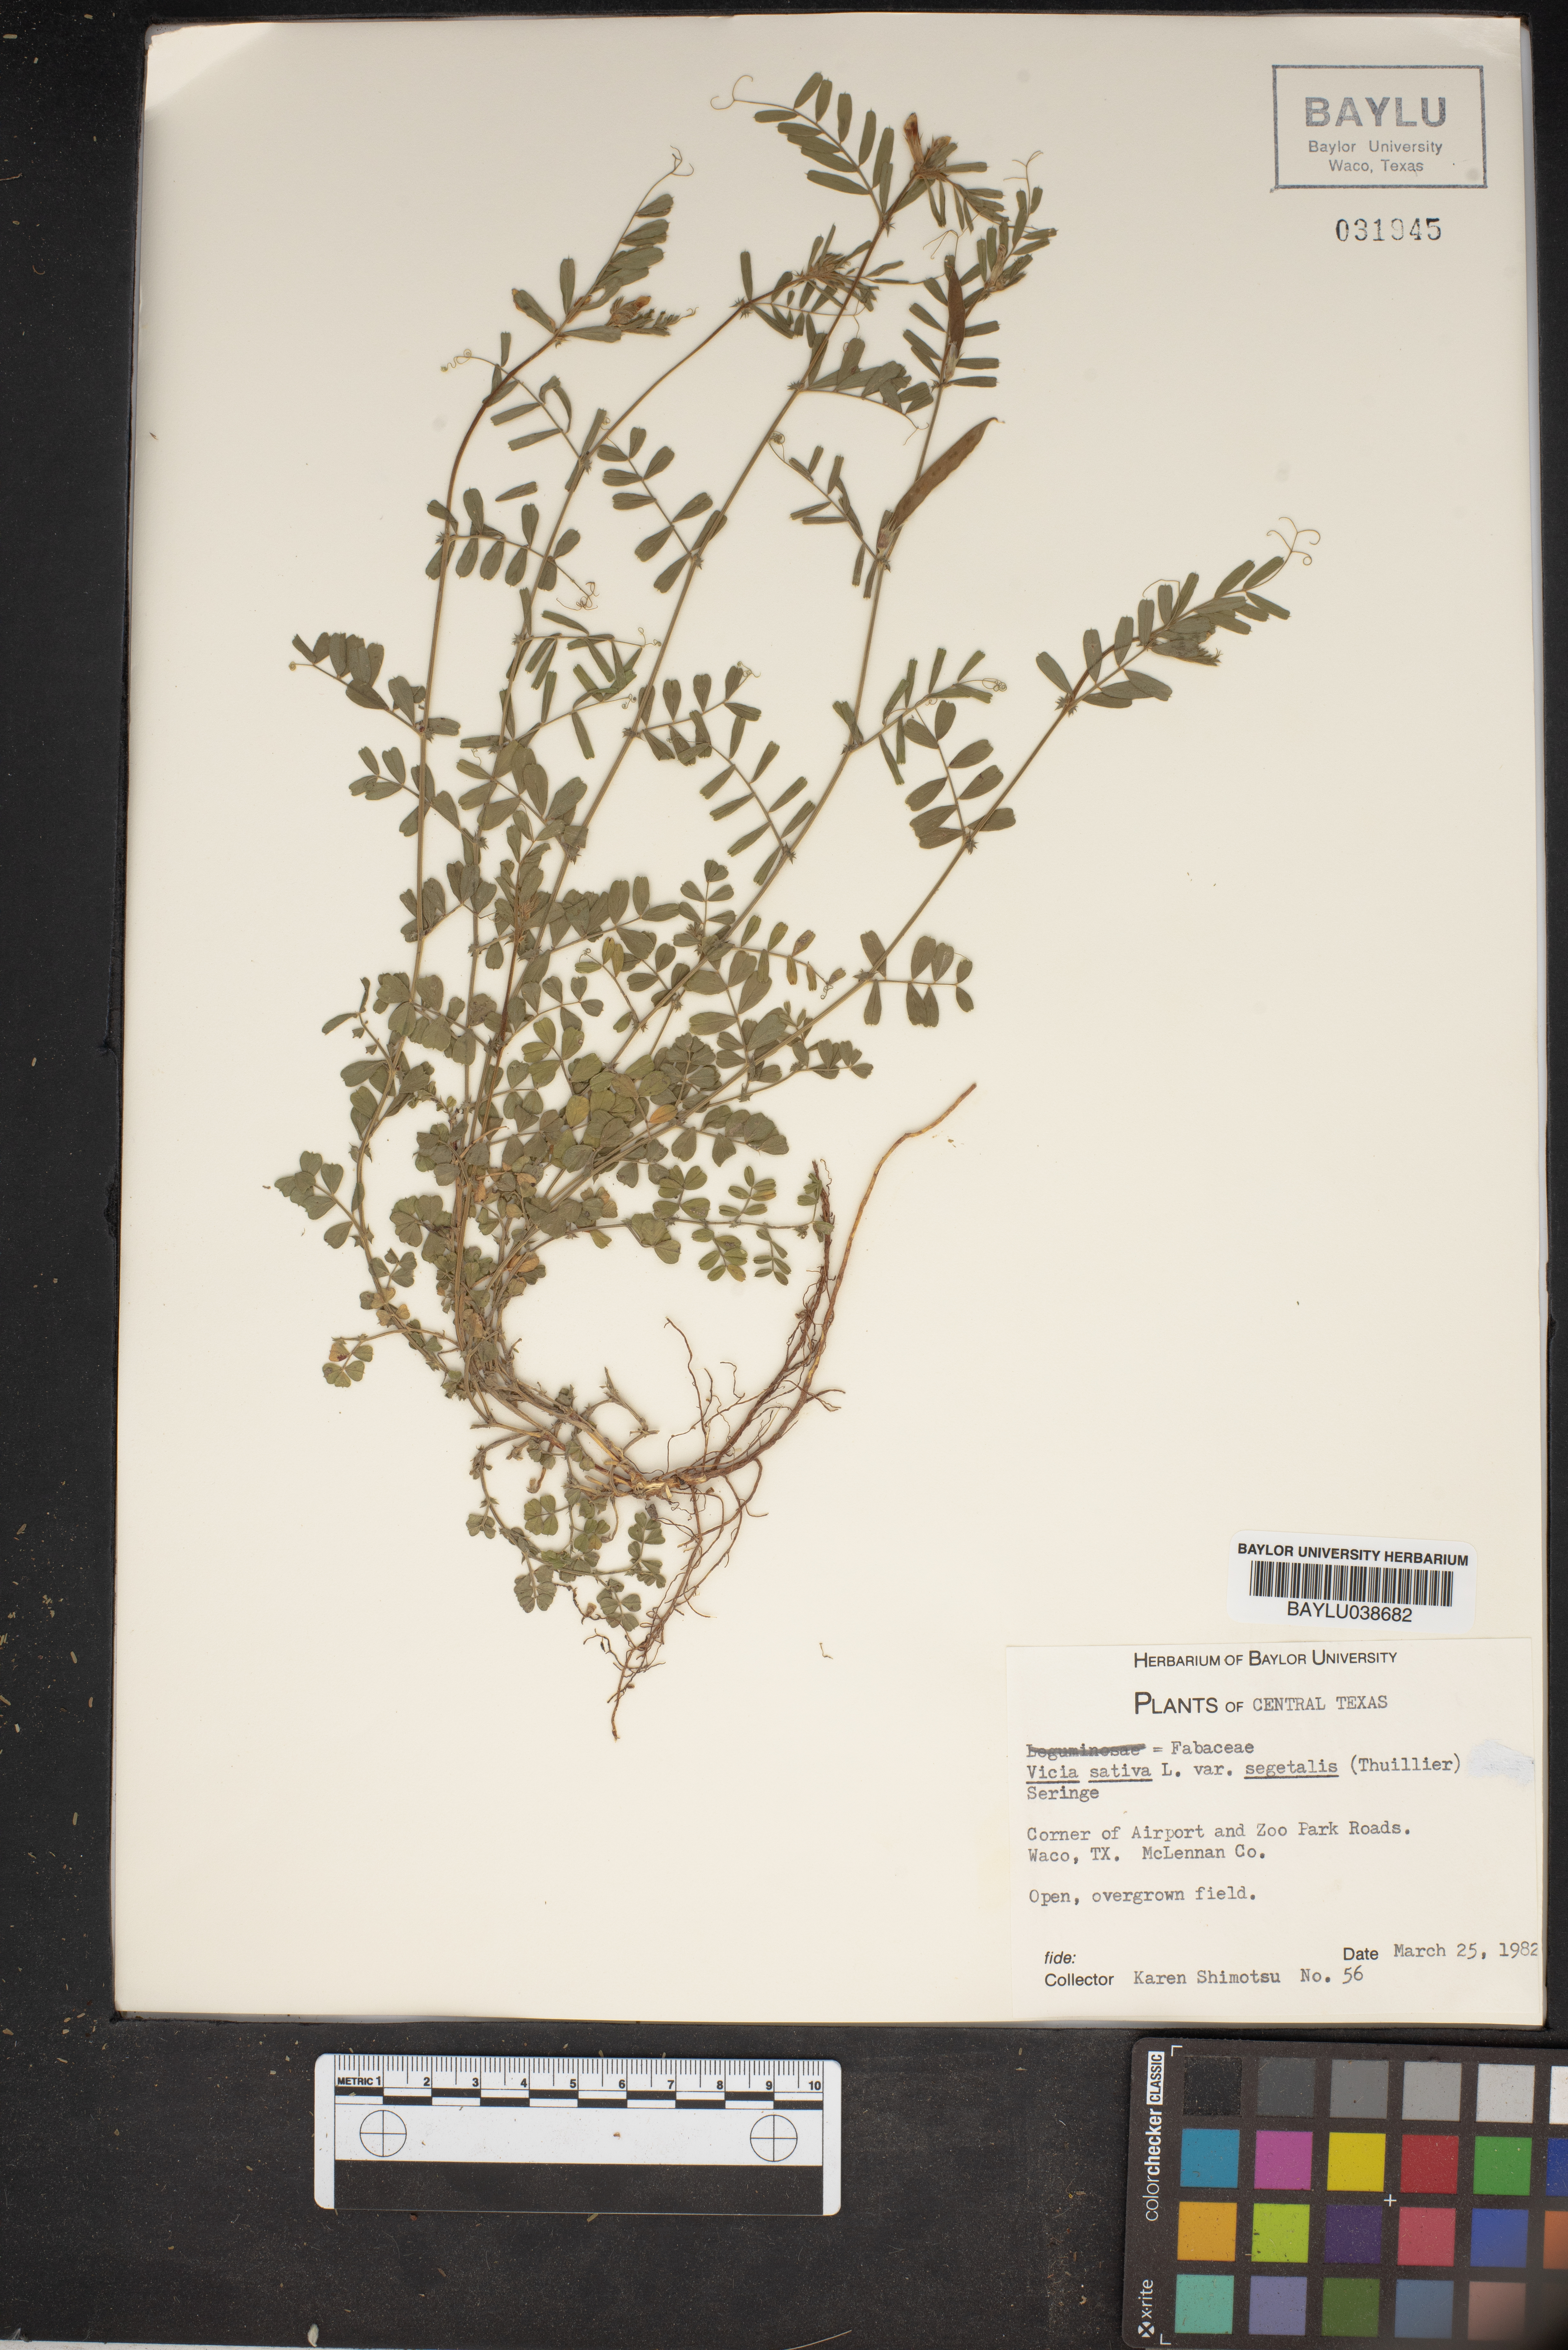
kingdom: Plantae
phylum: Tracheophyta
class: Magnoliopsida
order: Fabales
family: Fabaceae
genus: Vicia
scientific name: Vicia sativa
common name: Garden vetch
